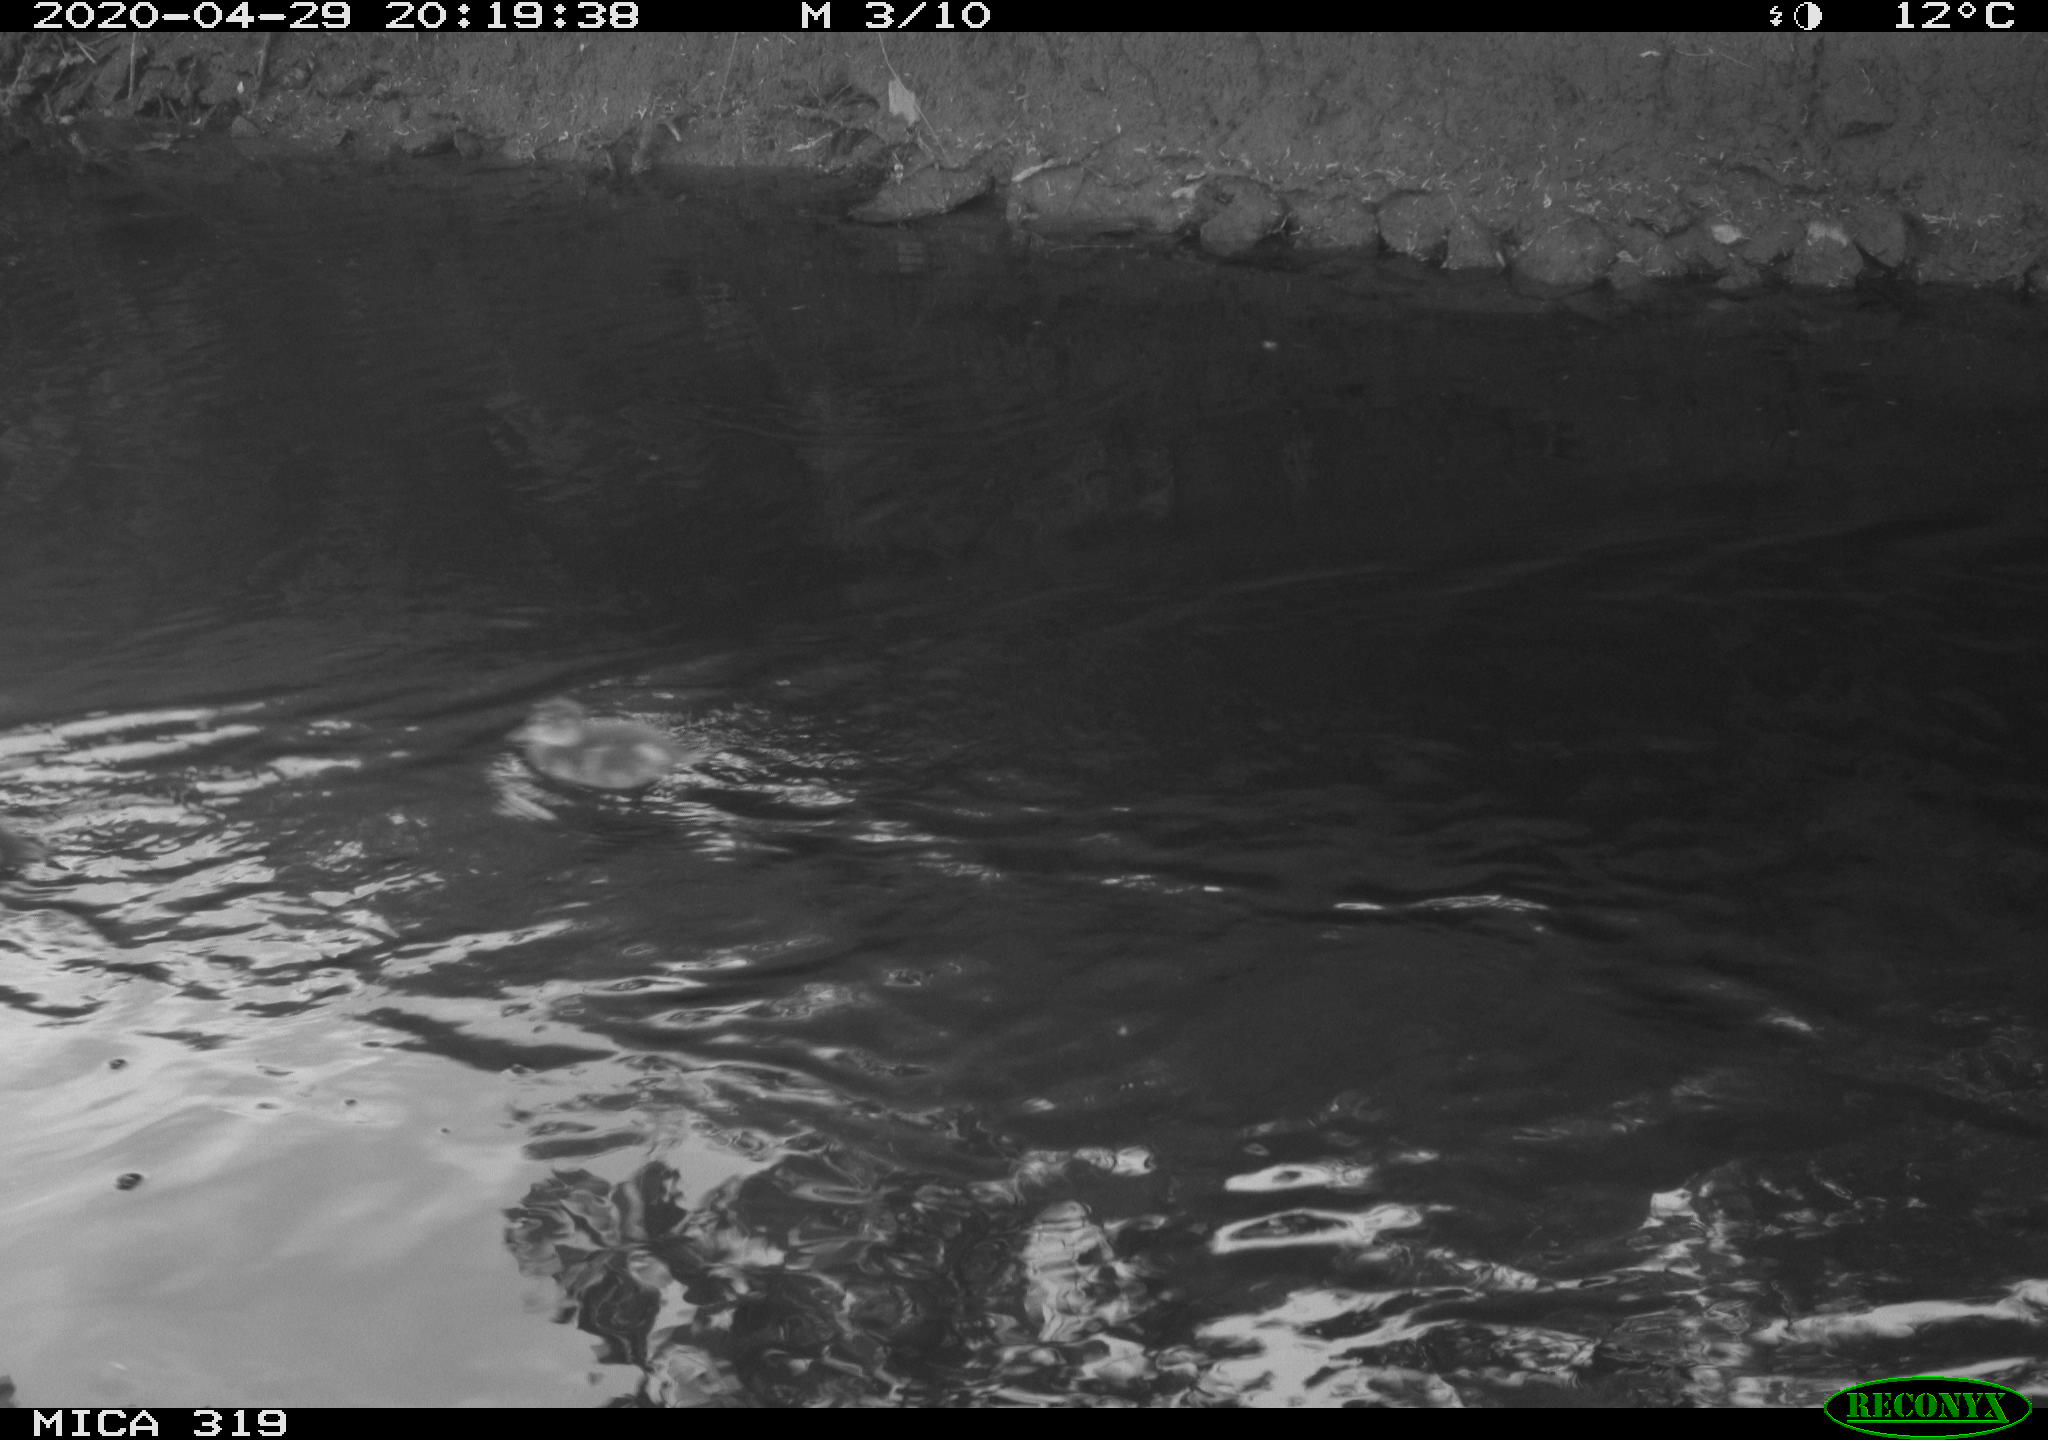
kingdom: Animalia
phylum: Chordata
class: Aves
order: Anseriformes
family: Anatidae
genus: Anas
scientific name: Anas platyrhynchos
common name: Mallard
